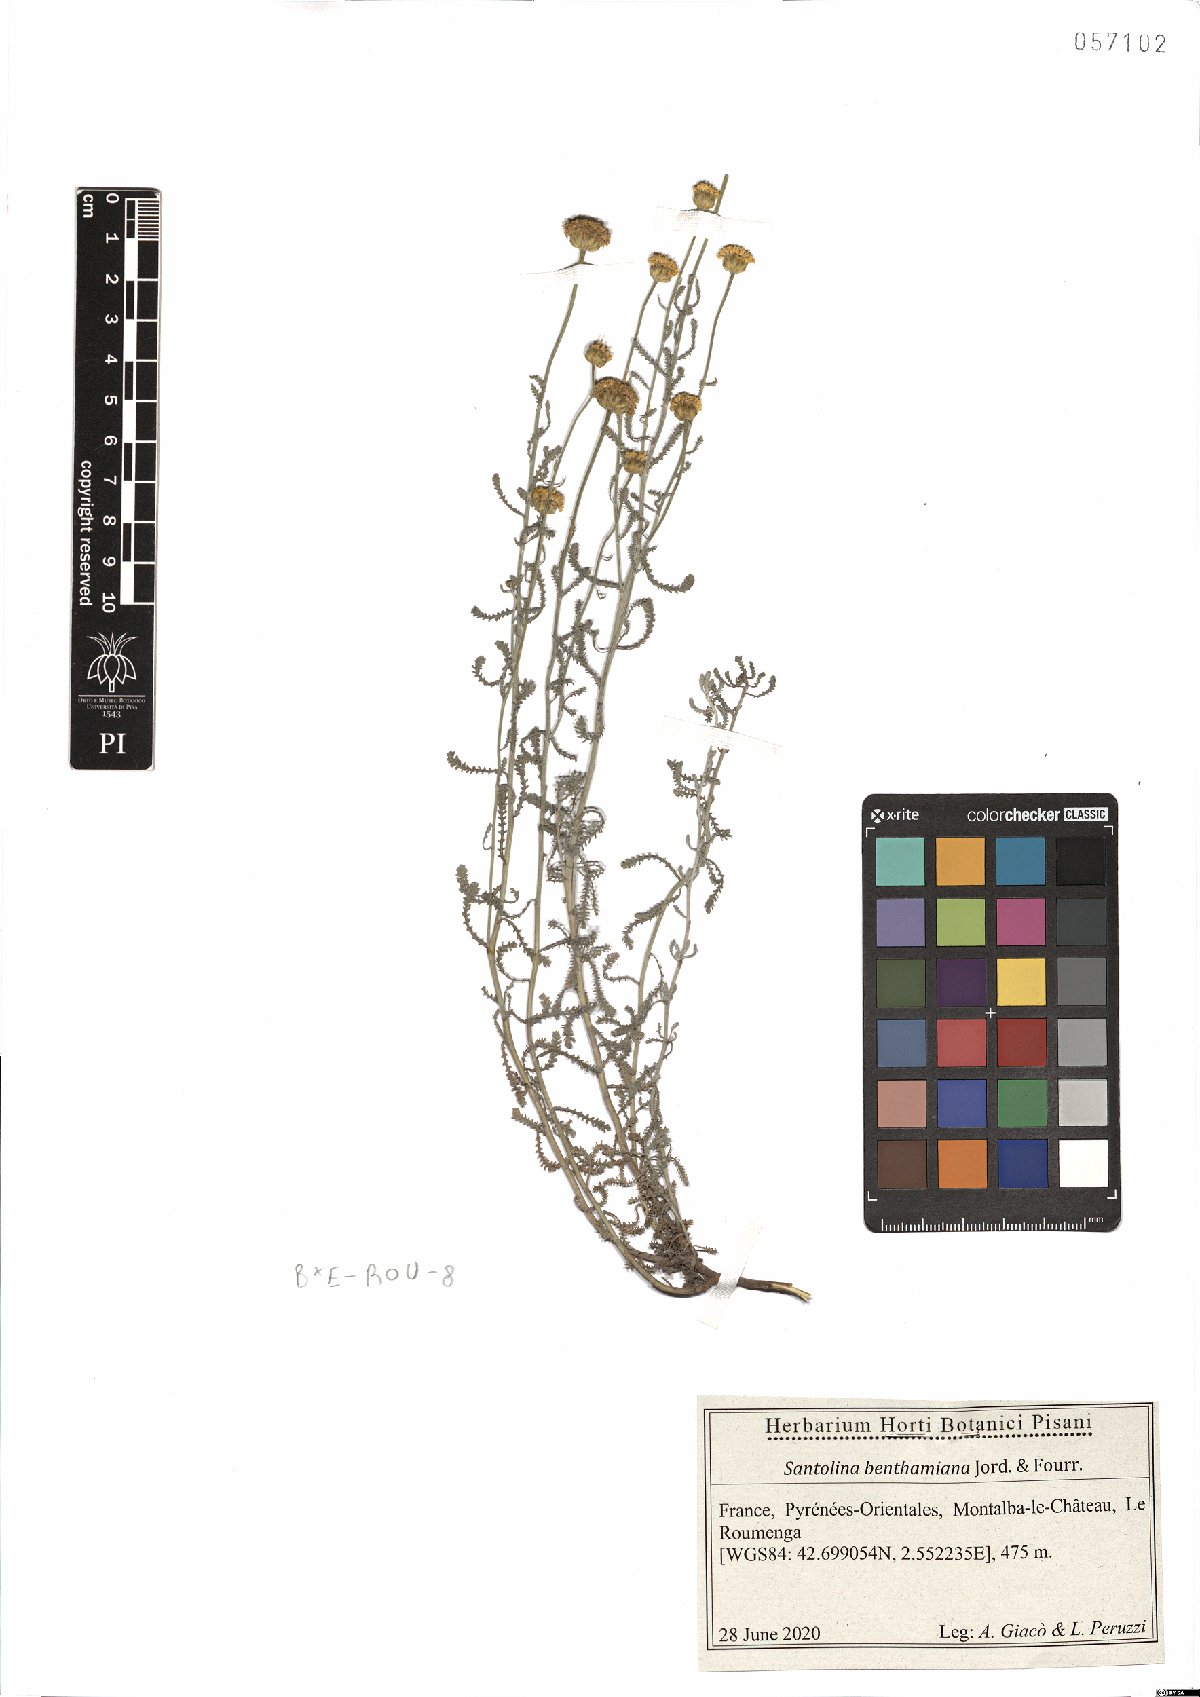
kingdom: Plantae
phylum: Tracheophyta
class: Magnoliopsida
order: Asterales
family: Asteraceae
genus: Santolina
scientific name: Santolina benthamiana
